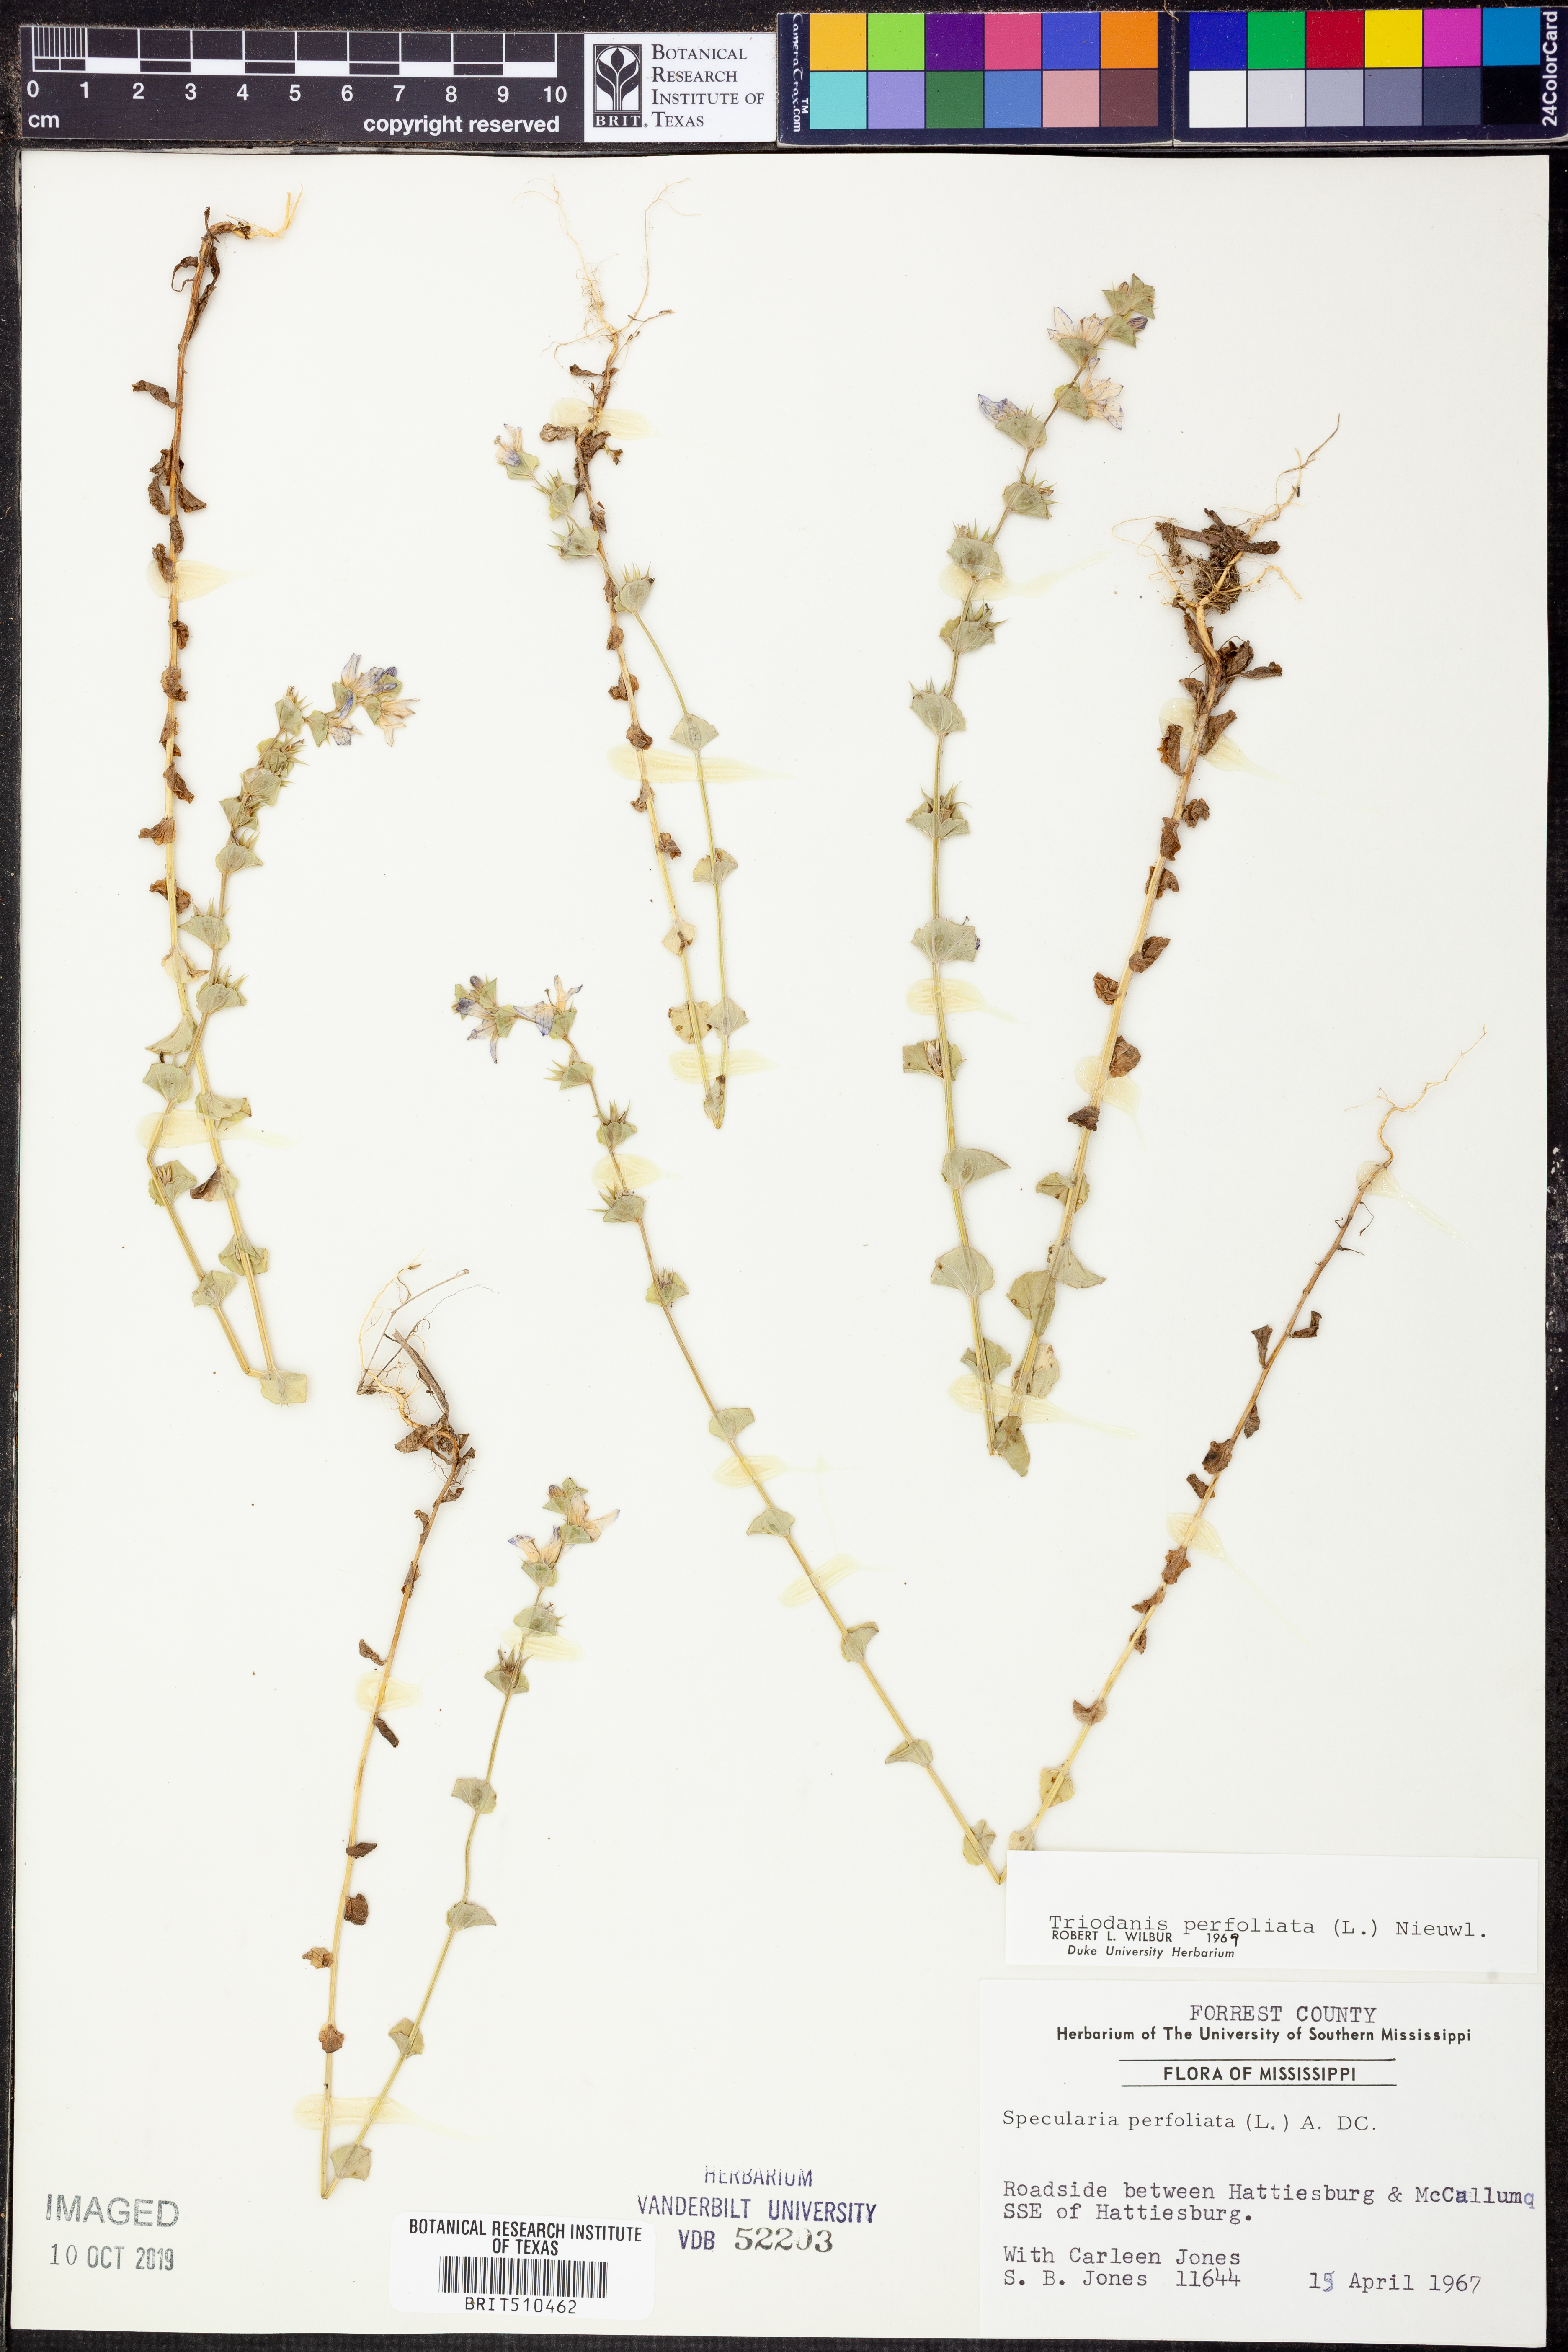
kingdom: Plantae
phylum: Tracheophyta
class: Magnoliopsida
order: Asterales
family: Campanulaceae
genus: Triodanis
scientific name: Triodanis perfoliata
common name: Clasping venus' looking-glass
